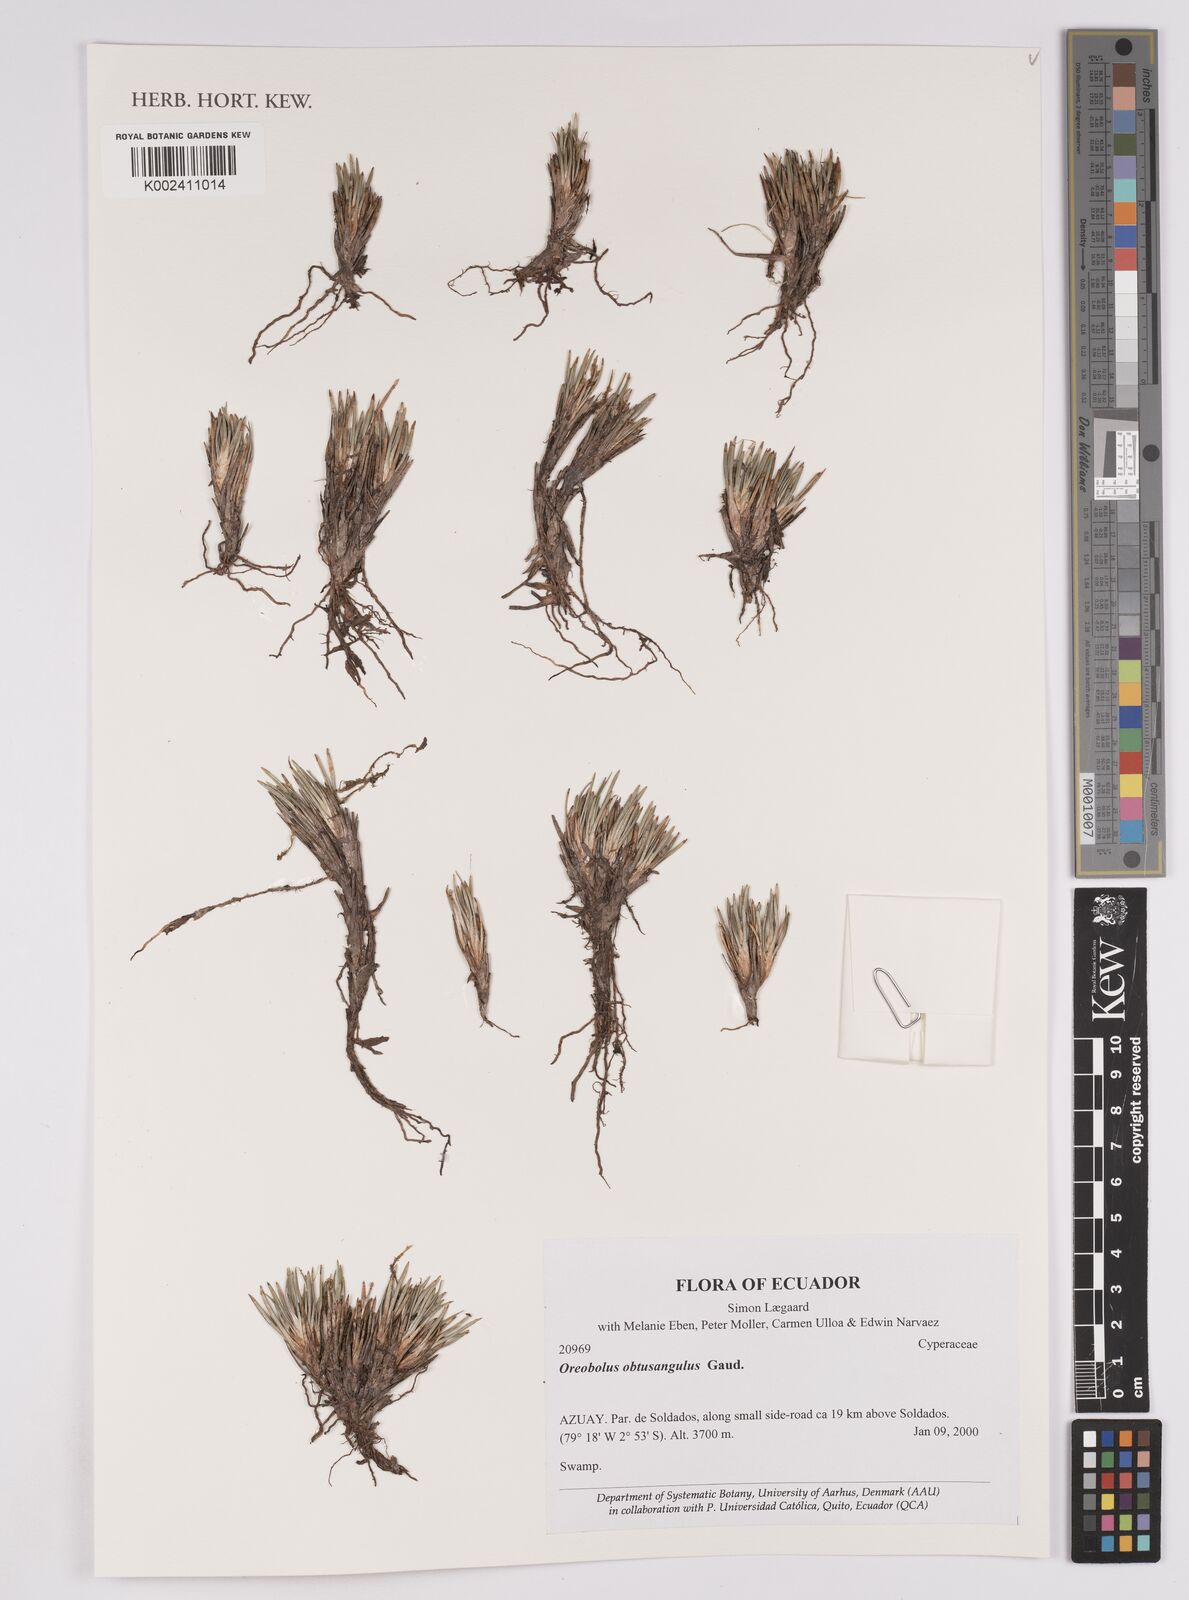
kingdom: Plantae
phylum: Tracheophyta
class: Liliopsida
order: Poales
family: Cyperaceae
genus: Oreobolus
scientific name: Oreobolus obtusangulus
